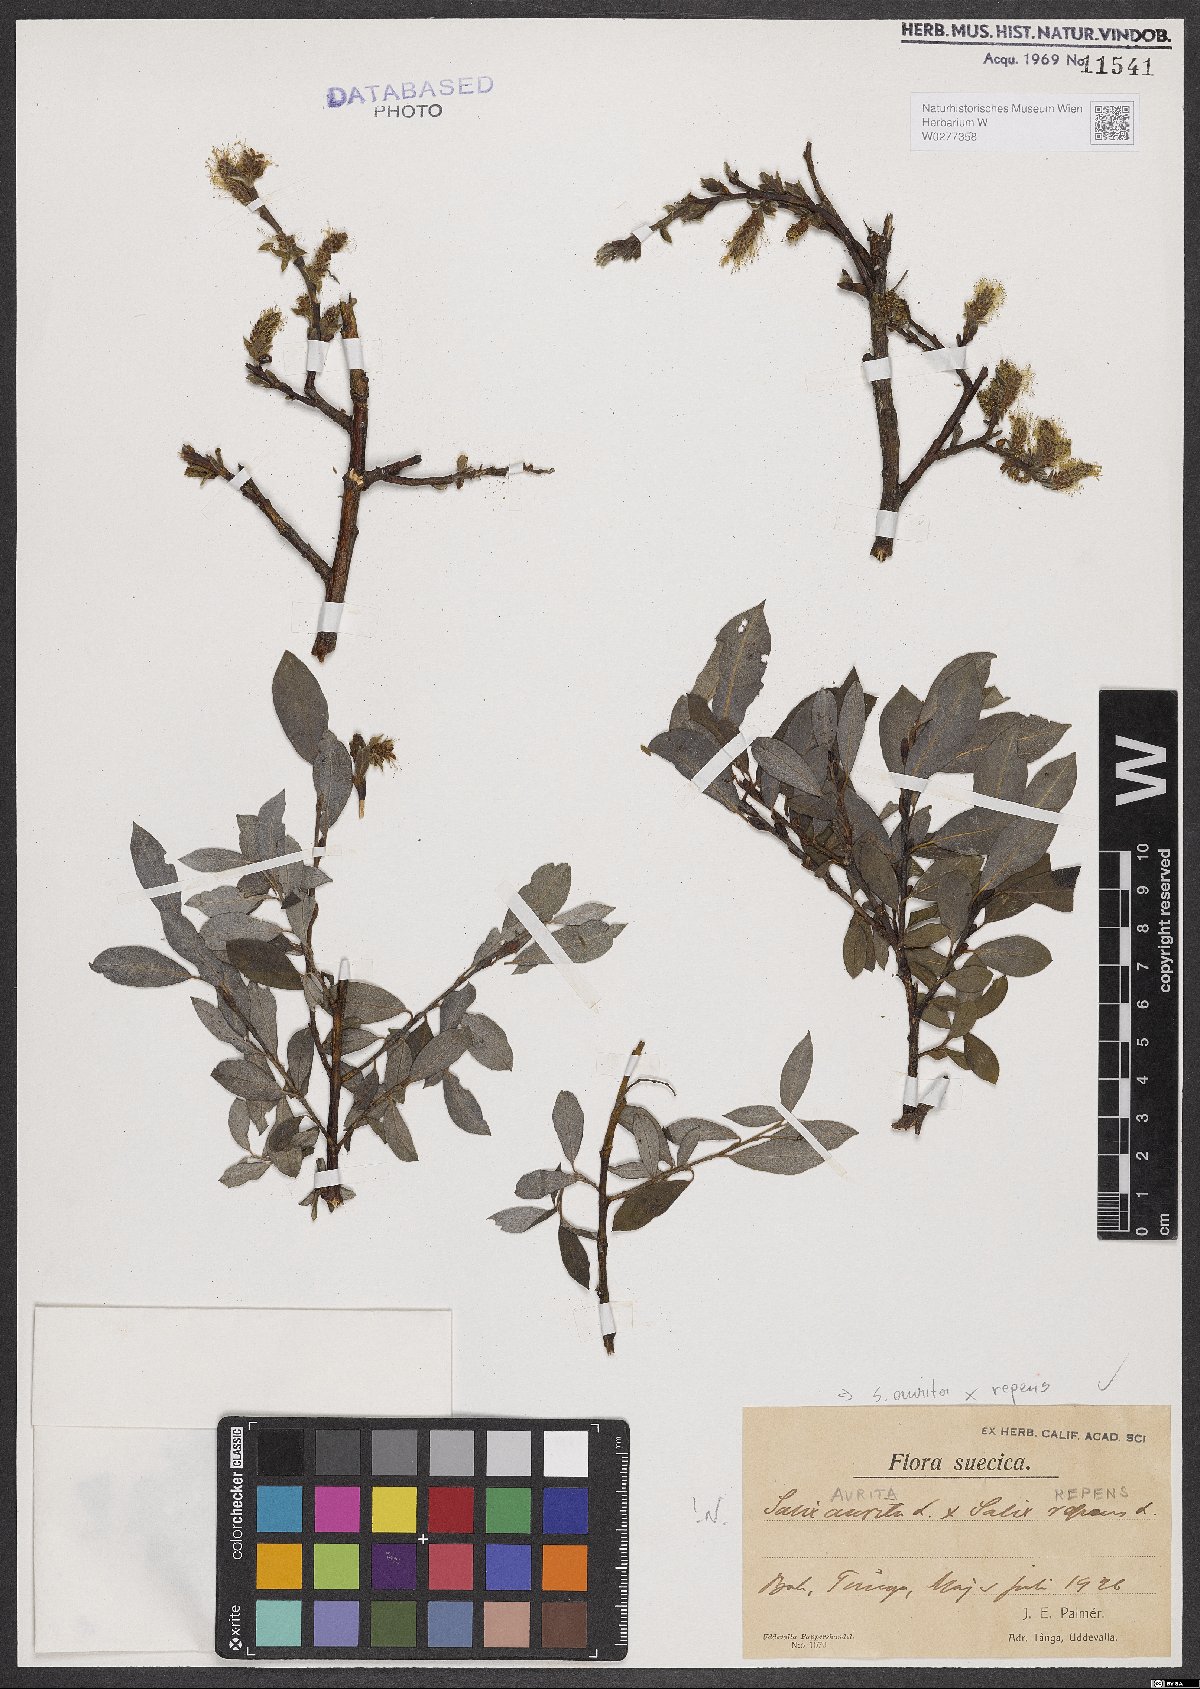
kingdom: Plantae
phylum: Tracheophyta
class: Magnoliopsida
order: Malpighiales
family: Salicaceae
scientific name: Salicaceae
